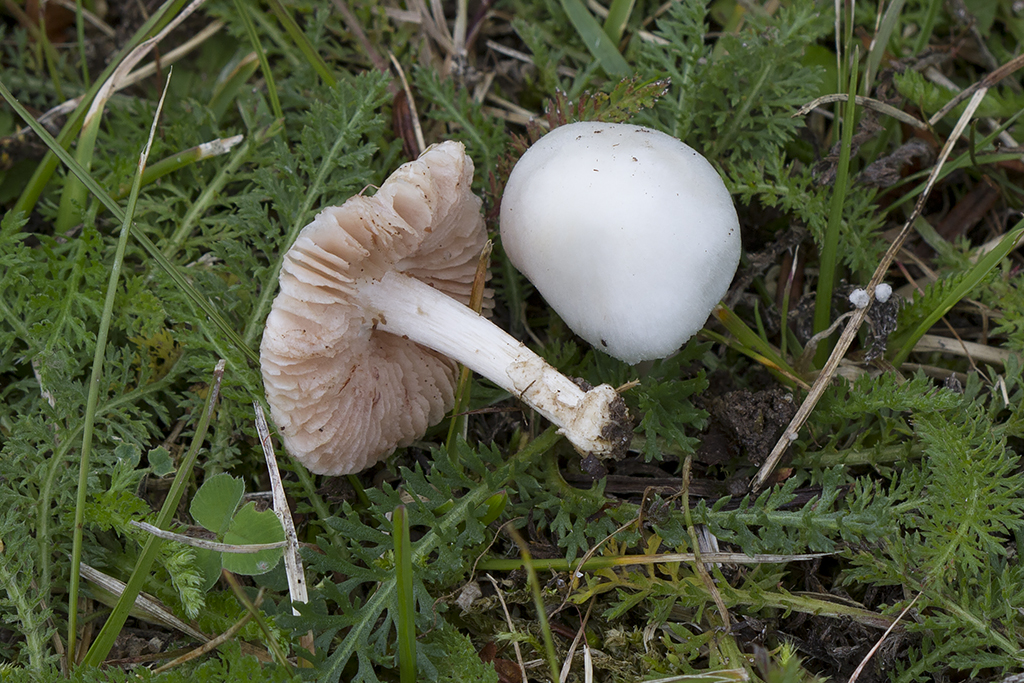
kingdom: Fungi
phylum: Basidiomycota
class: Agaricomycetes
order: Agaricales
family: Pluteaceae
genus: Volvariella
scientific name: Volvariella
